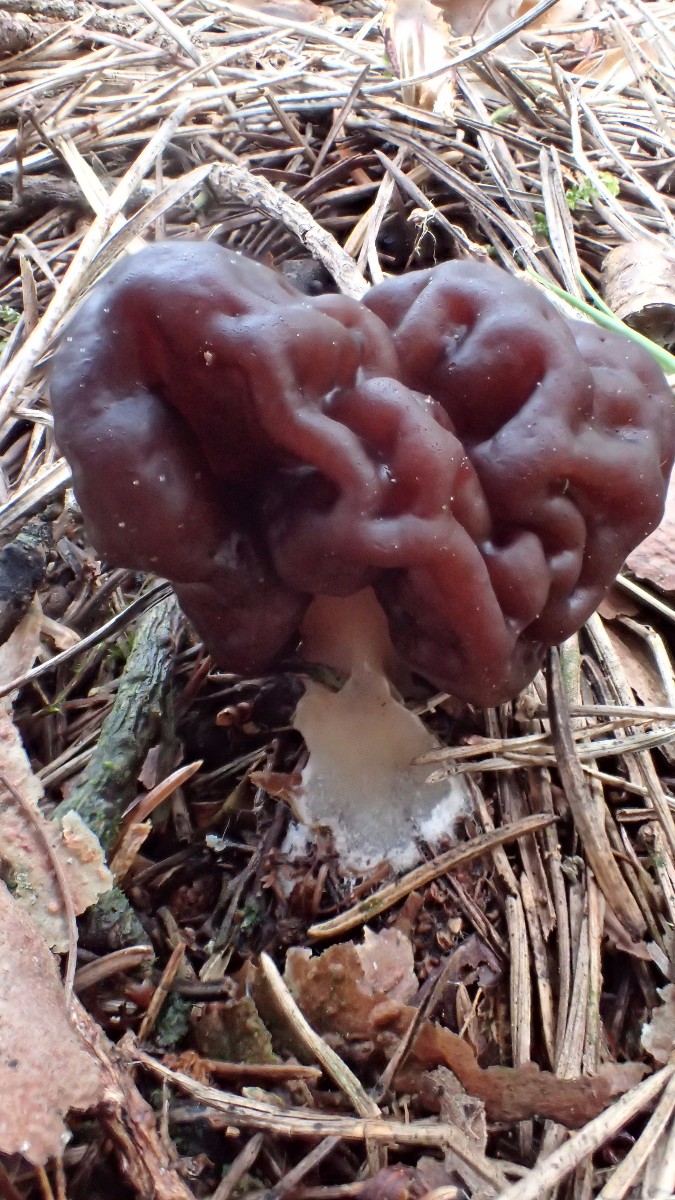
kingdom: Fungi
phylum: Ascomycota
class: Pezizomycetes
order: Pezizales
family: Discinaceae
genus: Gyromitra
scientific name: Gyromitra esculenta
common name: ægte stenmorkel
